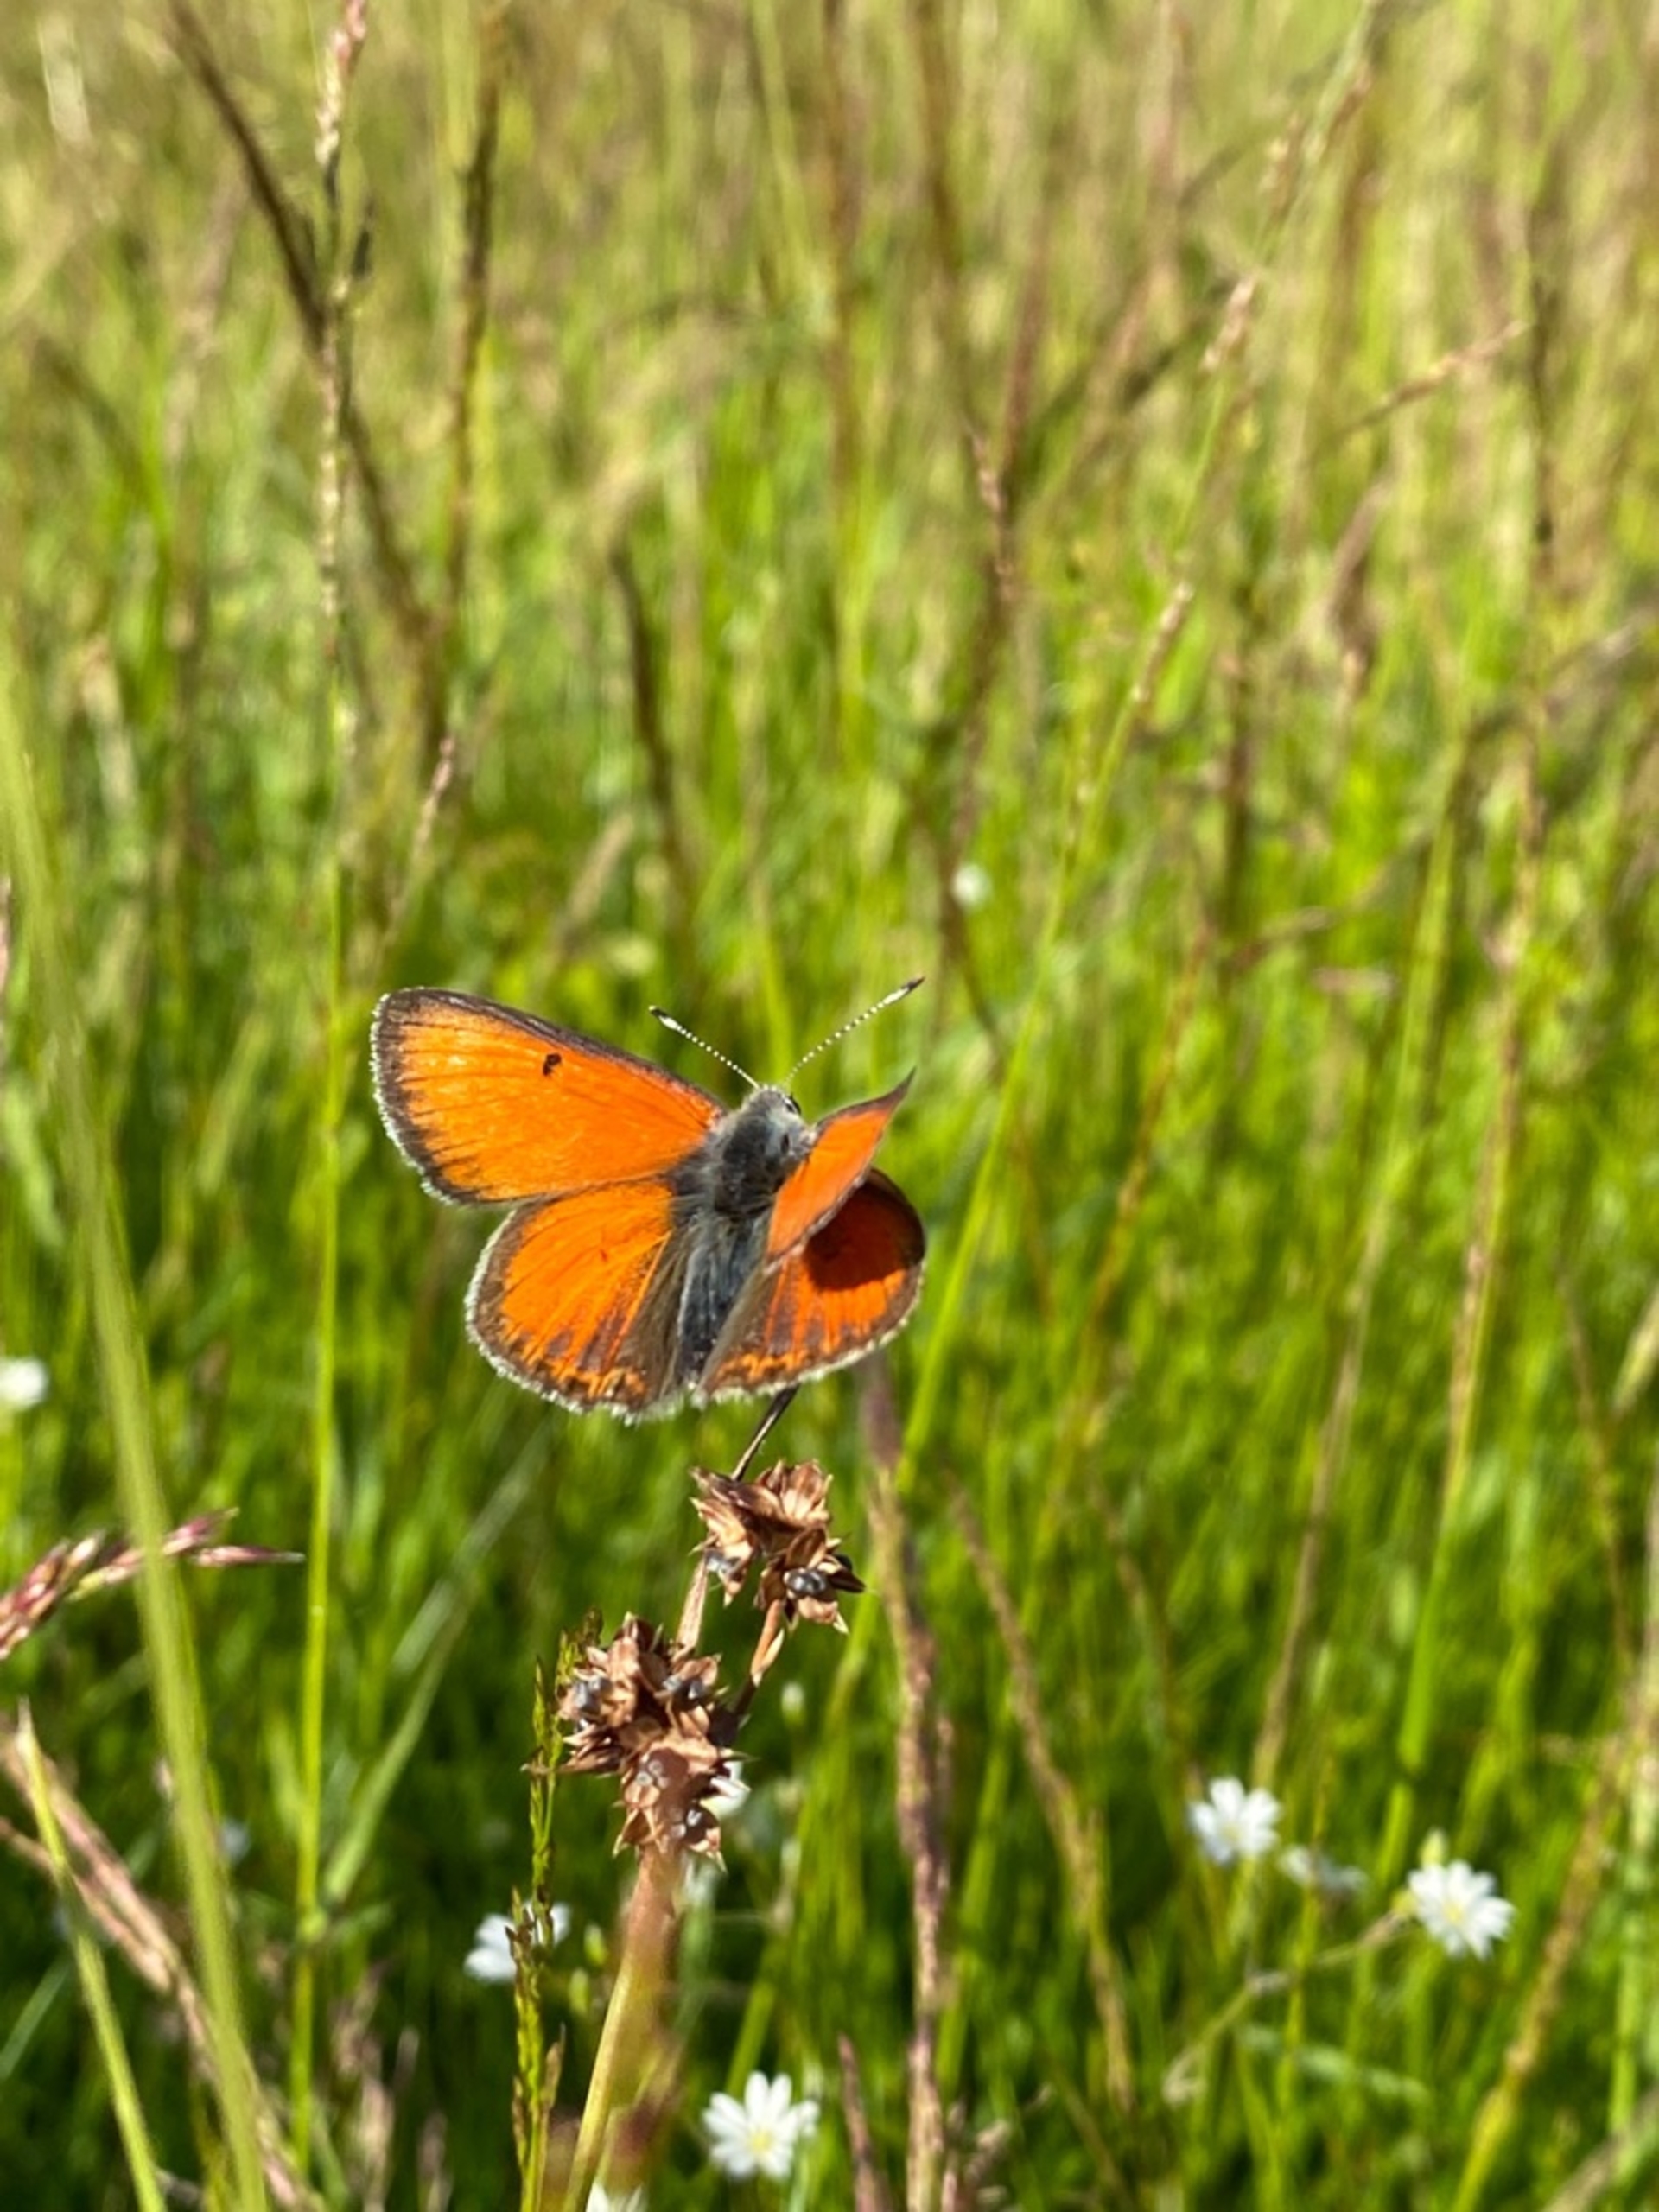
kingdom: Animalia
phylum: Arthropoda
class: Insecta
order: Lepidoptera
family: Lycaenidae
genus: Palaeochrysophanus
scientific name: Palaeochrysophanus hippothoe
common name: Violetrandet ildfugl
